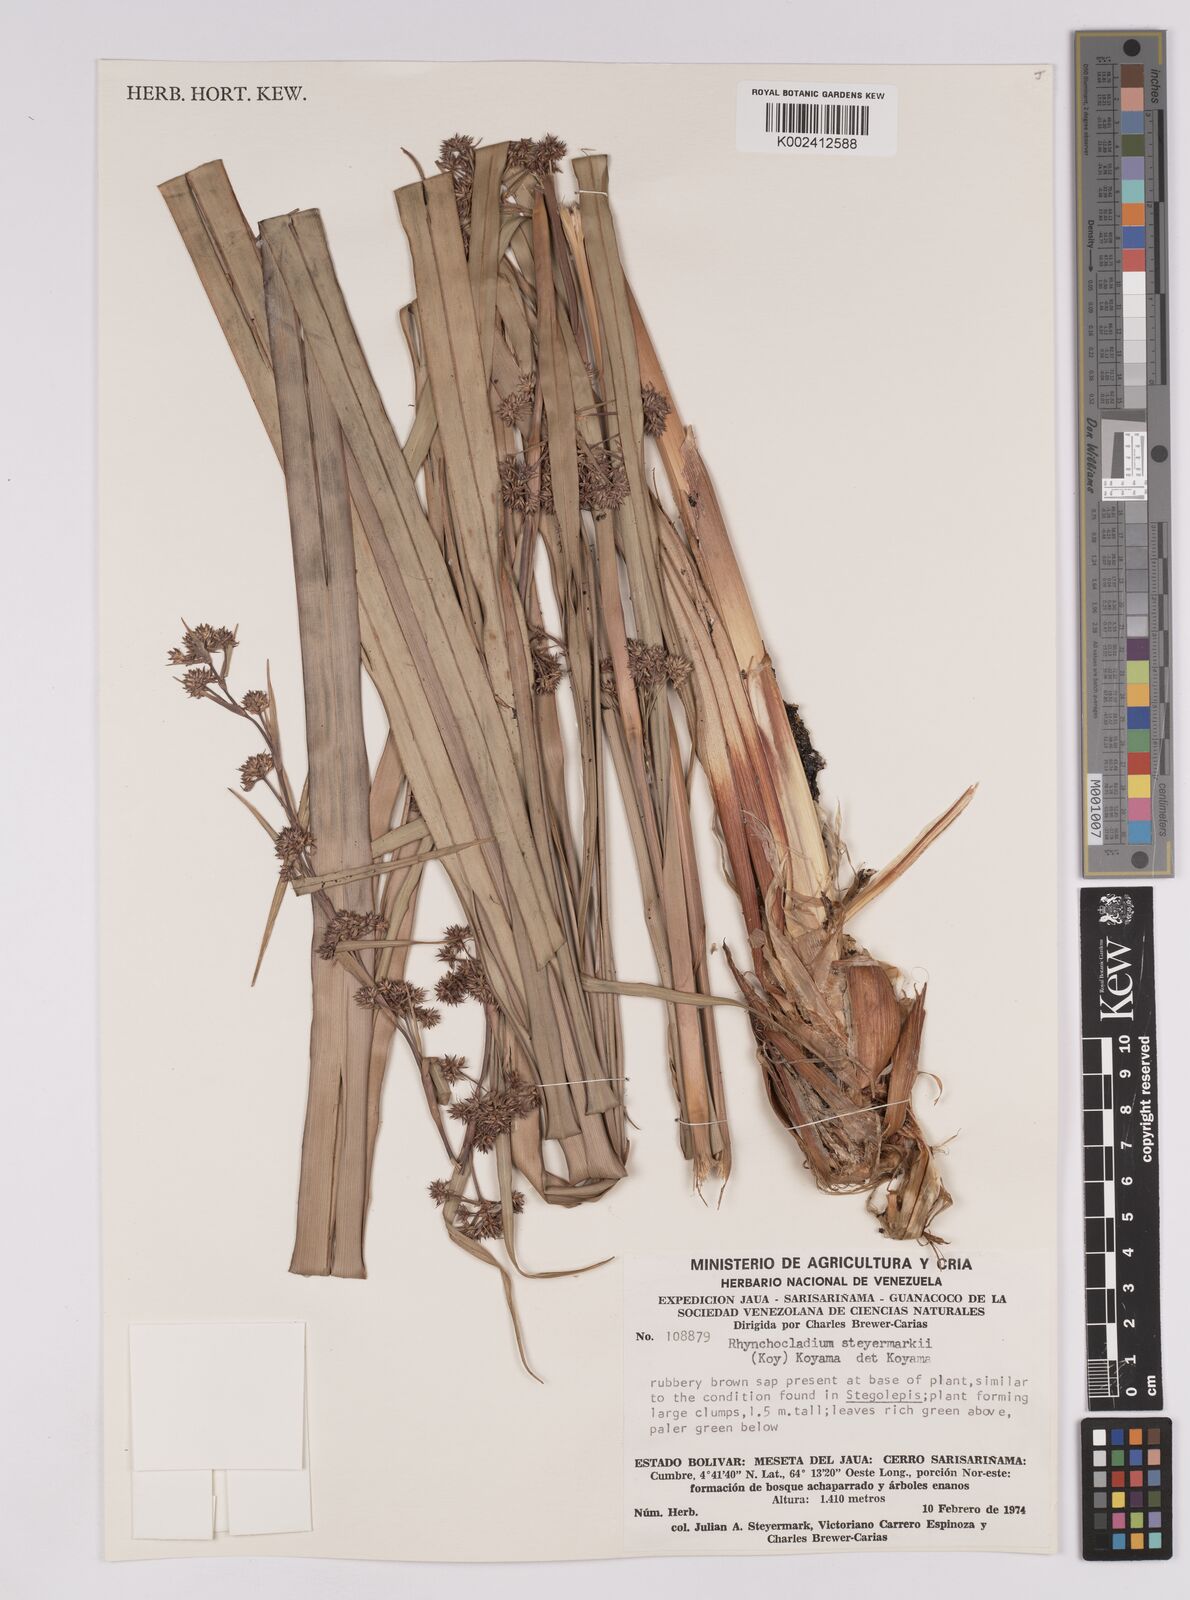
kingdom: Plantae
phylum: Tracheophyta
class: Liliopsida
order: Poales
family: Cyperaceae
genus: Rhynchospora
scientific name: Rhynchospora steyermarkii
